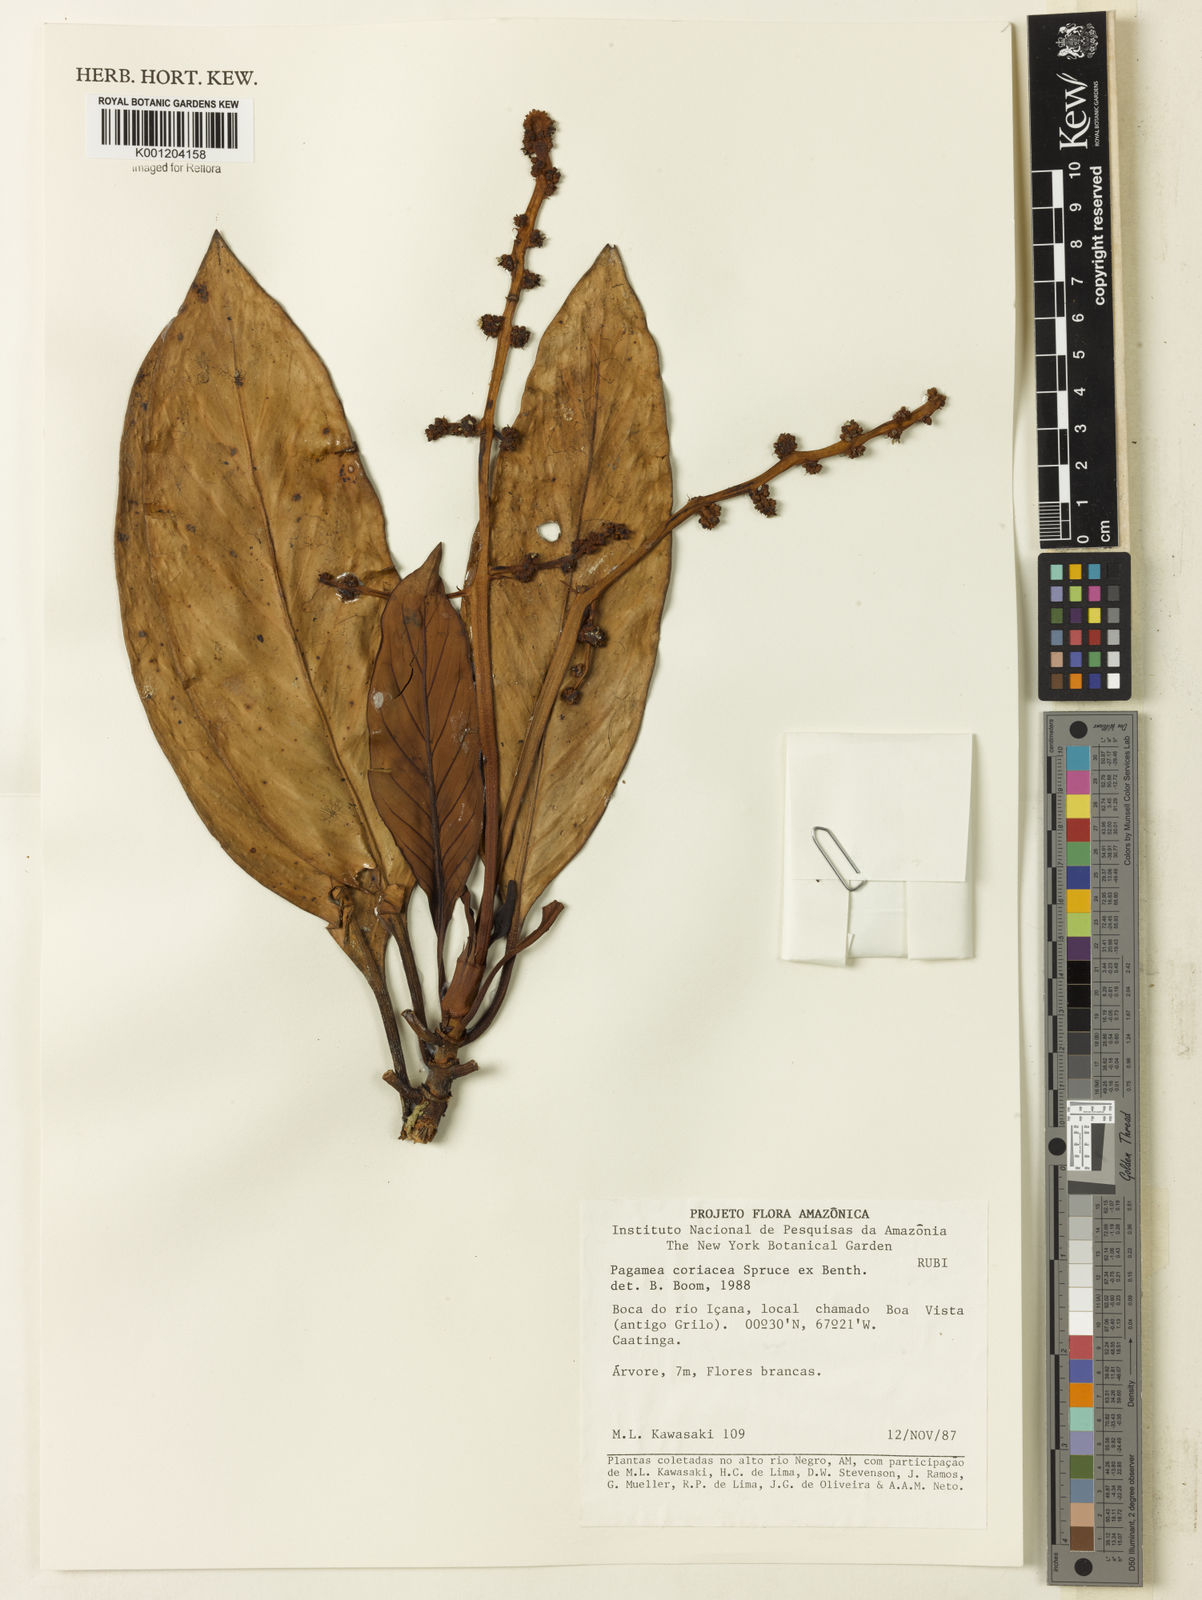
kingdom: Plantae
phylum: Tracheophyta
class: Magnoliopsida
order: Gentianales
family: Rubiaceae
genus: Pagamea
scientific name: Pagamea coriacea
